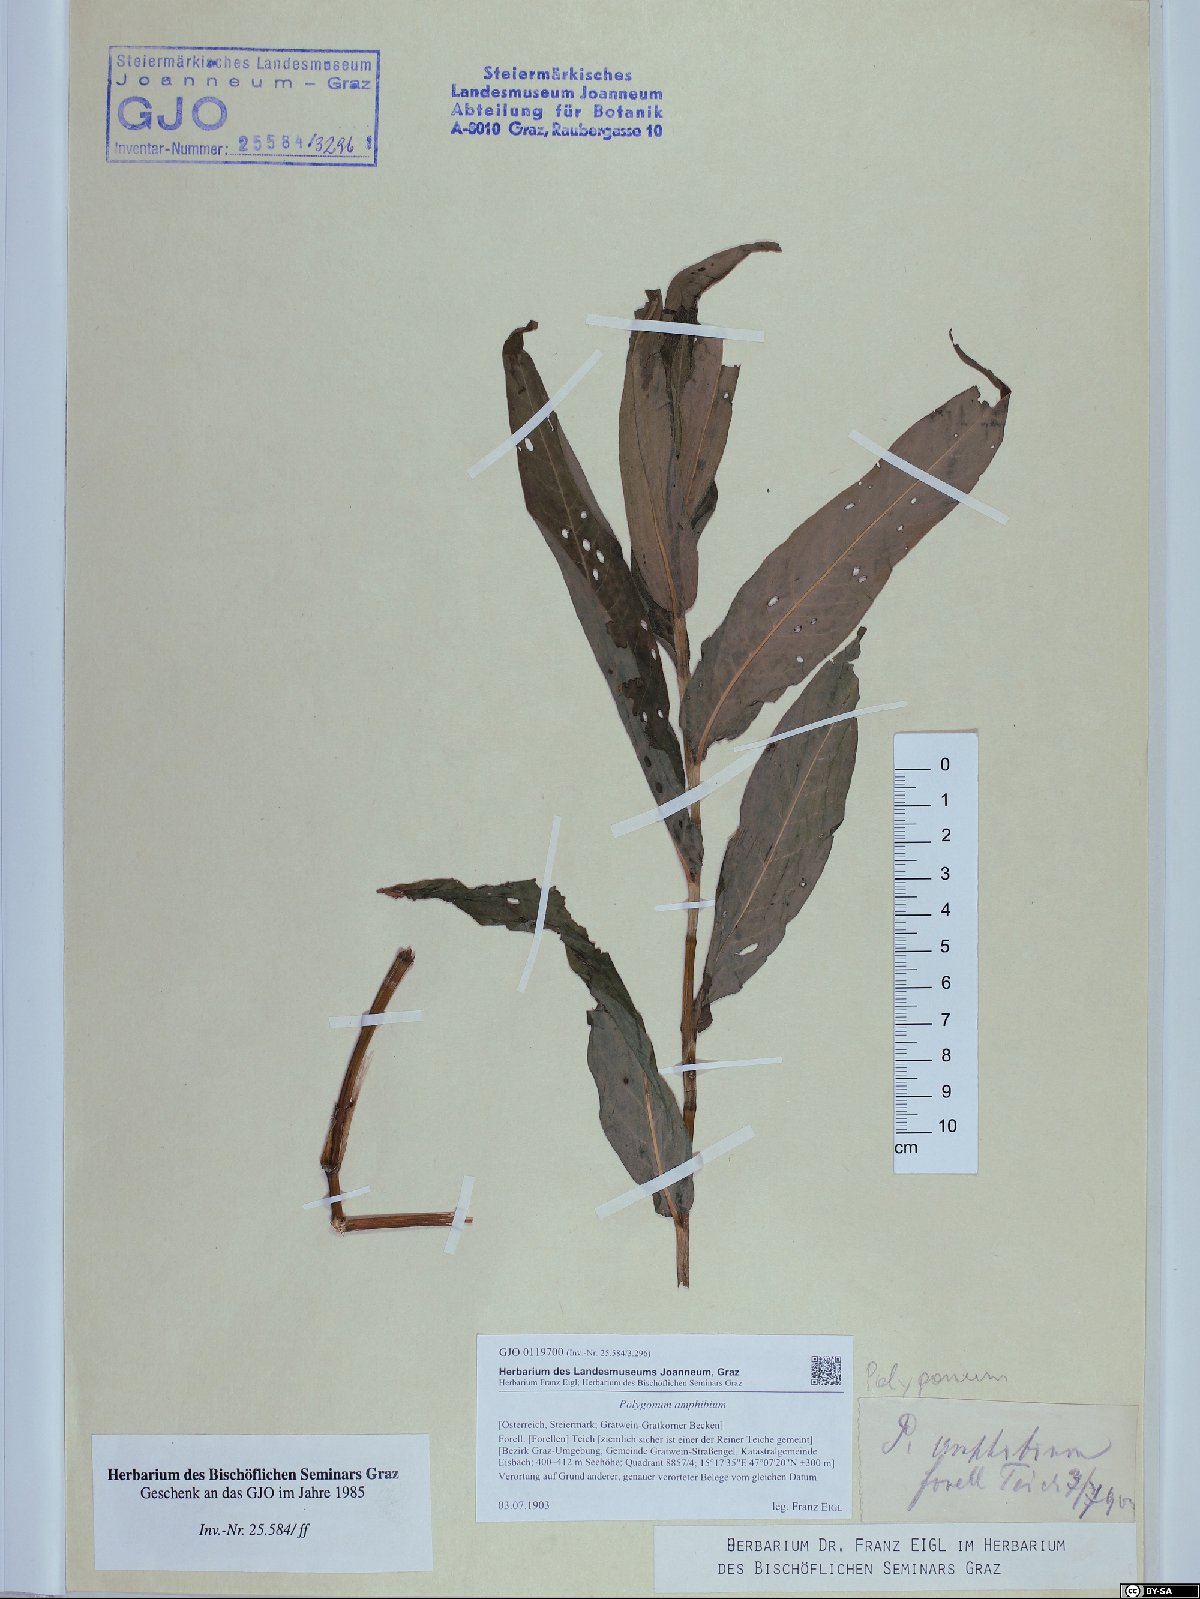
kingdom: Plantae
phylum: Tracheophyta
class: Magnoliopsida
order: Caryophyllales
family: Polygonaceae
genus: Persicaria
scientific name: Persicaria amphibia
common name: Amphibious bistort
